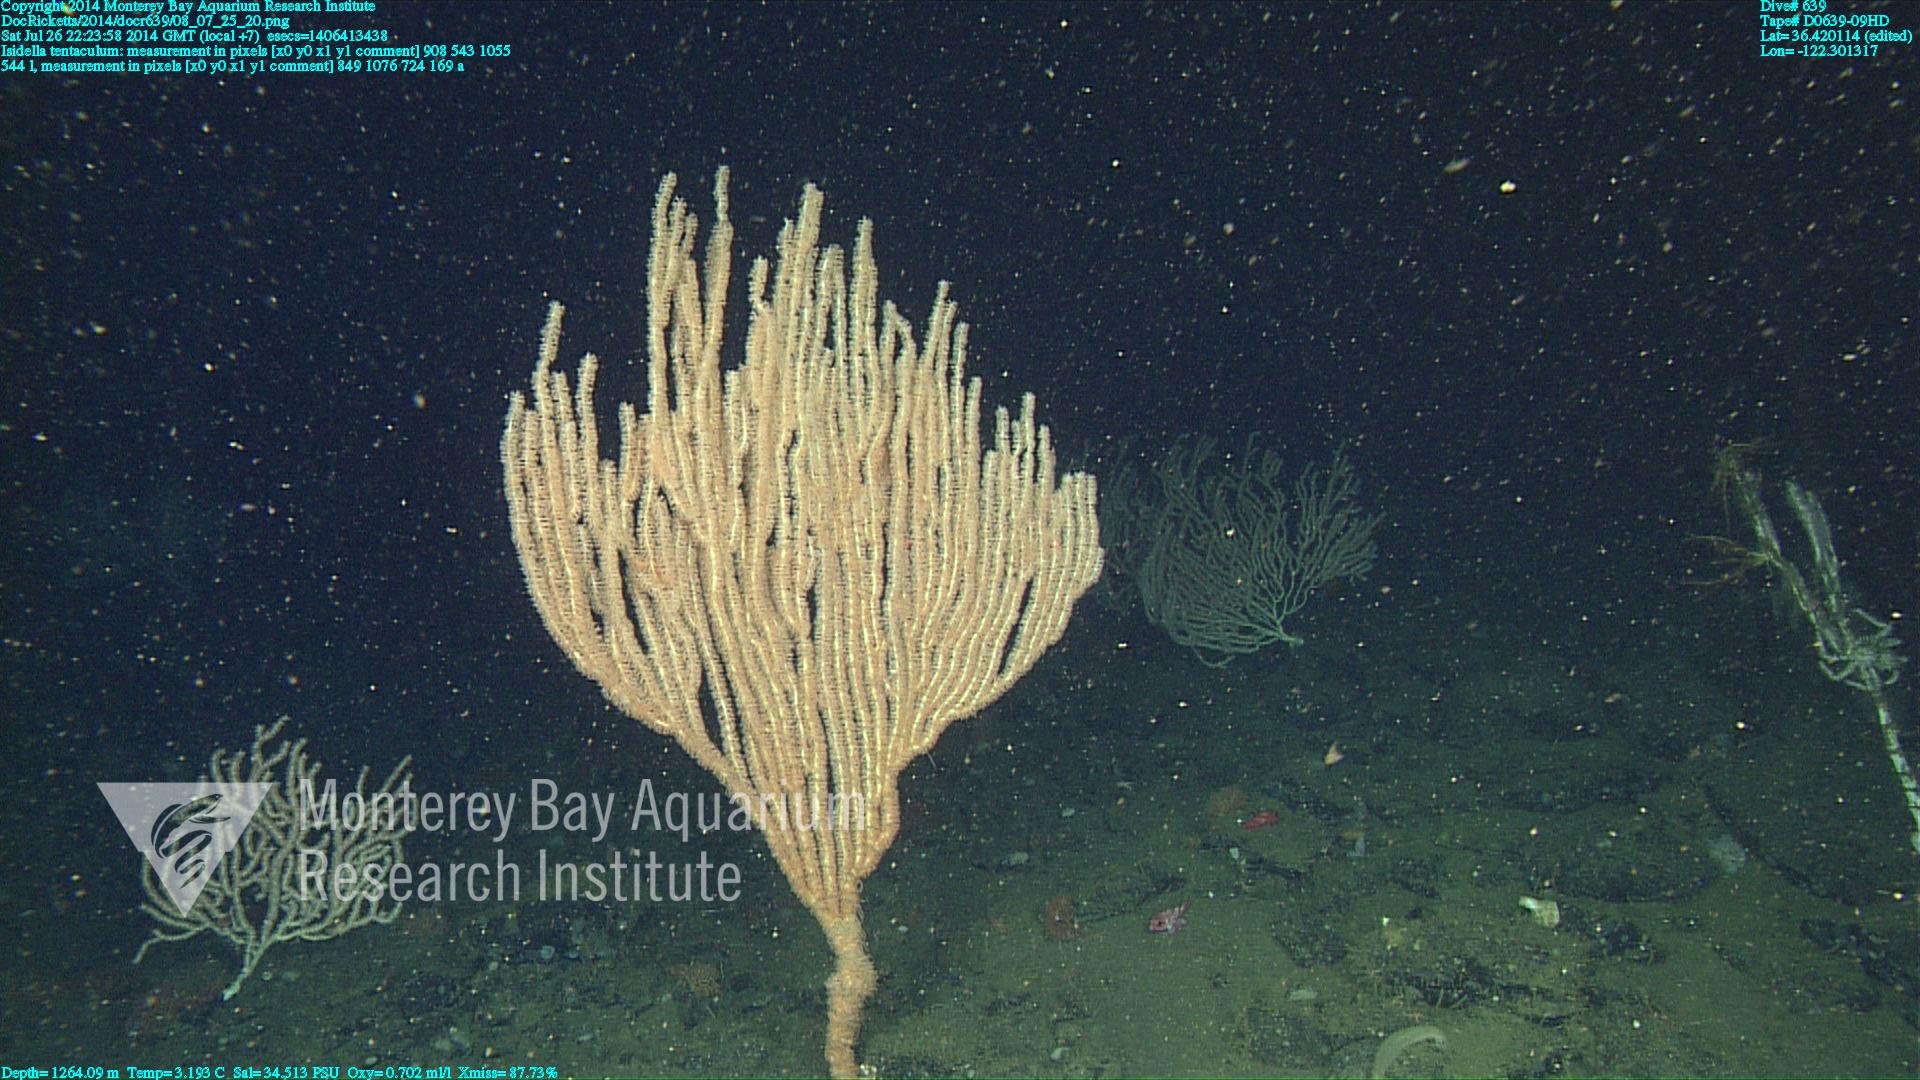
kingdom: Animalia
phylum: Cnidaria
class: Anthozoa
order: Scleralcyonacea
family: Keratoisididae
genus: Isidella
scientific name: Isidella tentaculum
